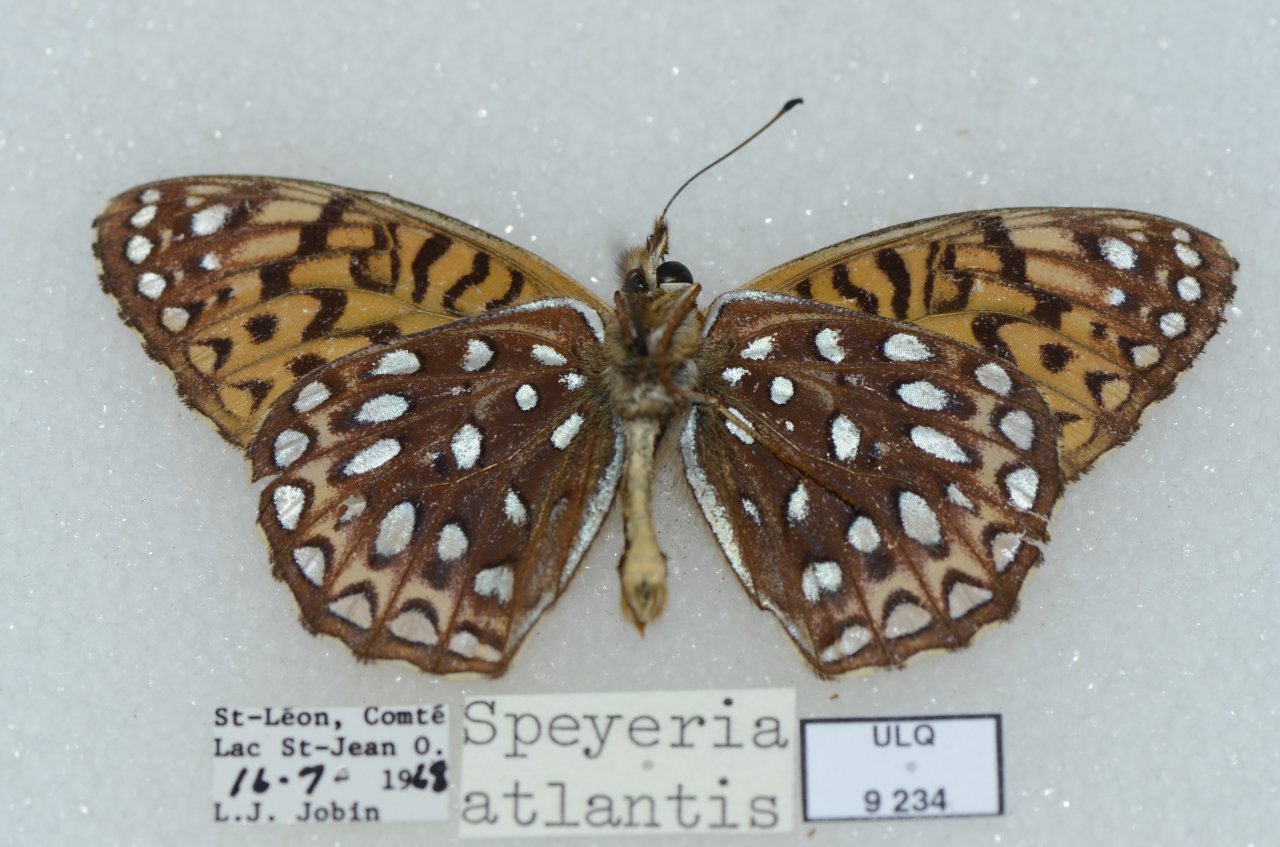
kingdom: Animalia
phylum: Arthropoda
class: Insecta
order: Lepidoptera
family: Nymphalidae
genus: Speyeria
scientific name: Speyeria atlantis
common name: Atlantis Fritillary
